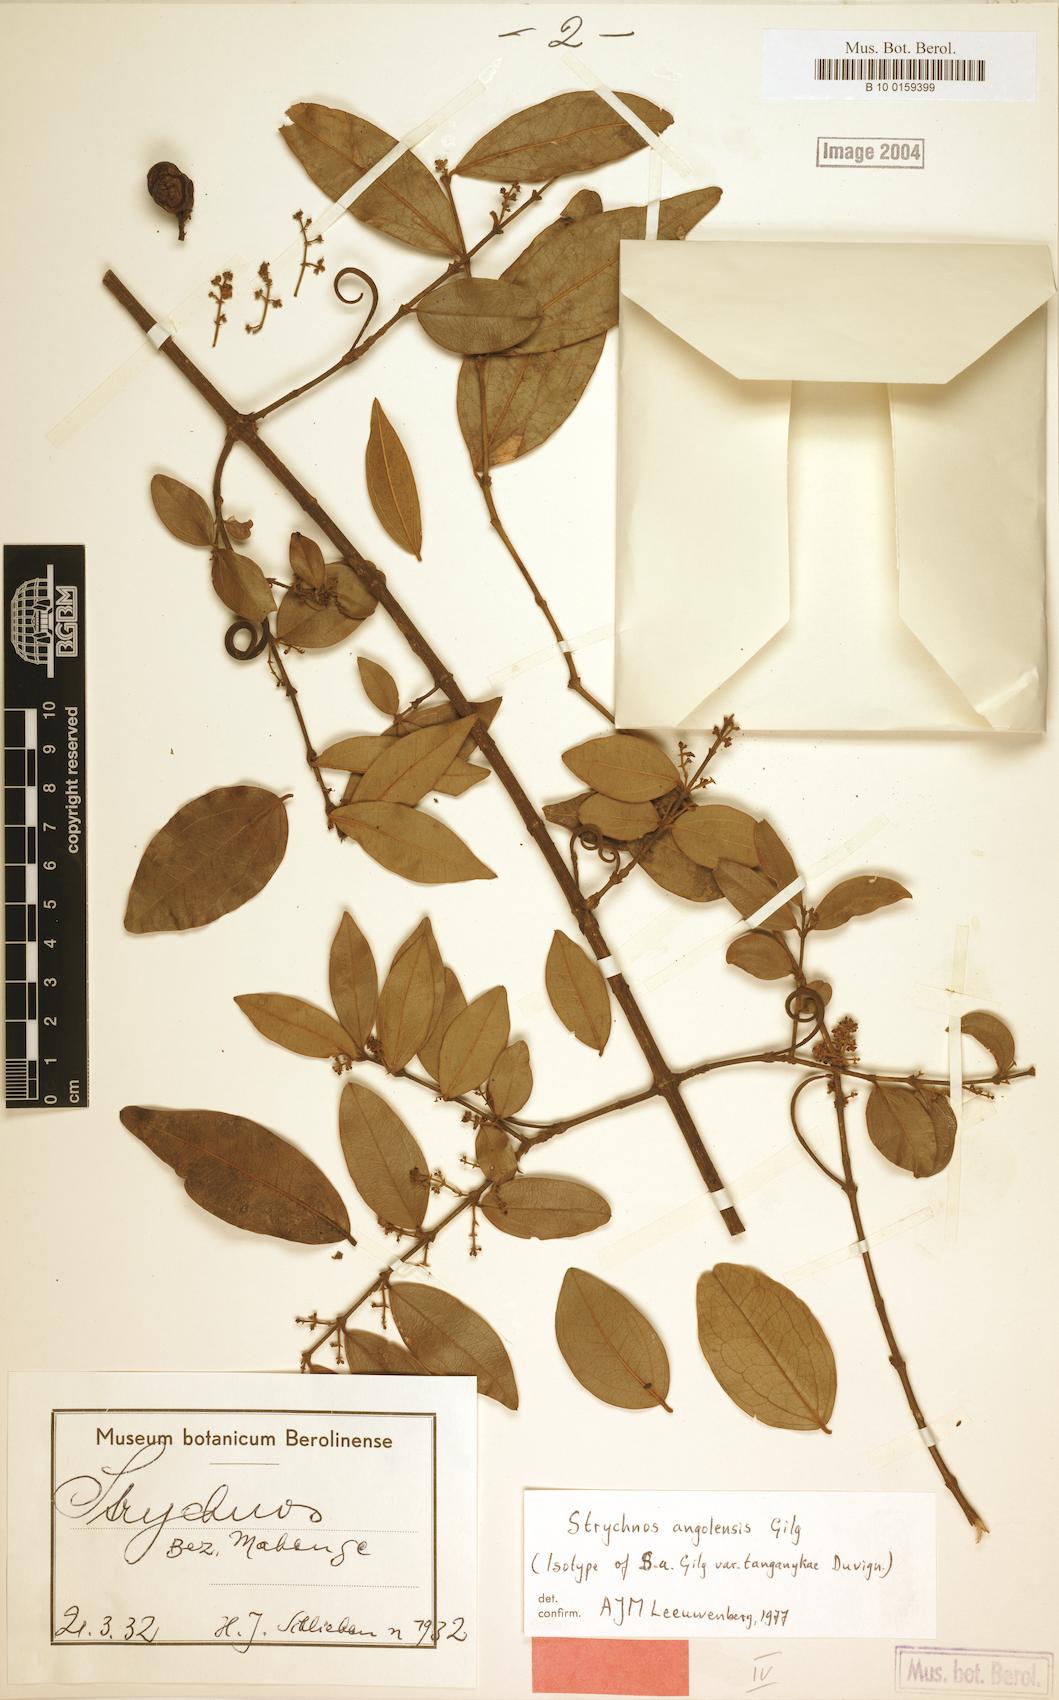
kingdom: Plantae
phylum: Tracheophyta
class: Magnoliopsida
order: Gentianales
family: Loganiaceae
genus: Strychnos
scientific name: Strychnos angolensis
